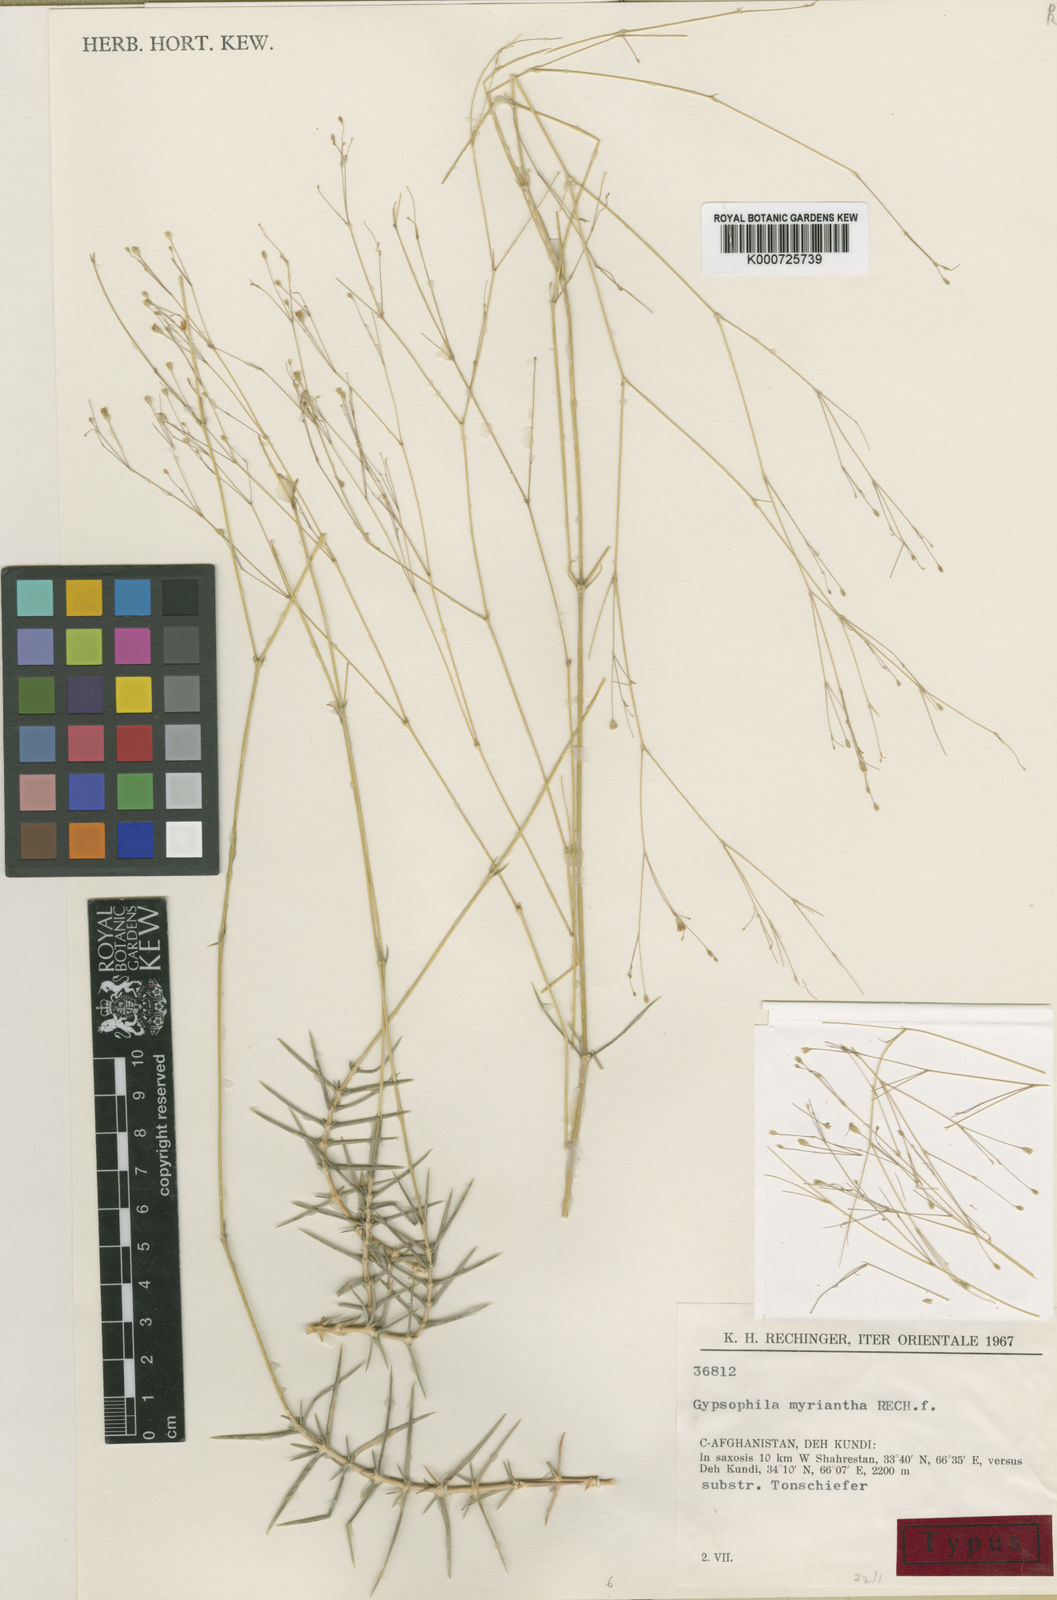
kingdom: Plantae
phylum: Tracheophyta
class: Magnoliopsida
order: Caryophyllales
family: Caryophyllaceae
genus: Acanthophyllum
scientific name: Acanthophyllum myrianthum
